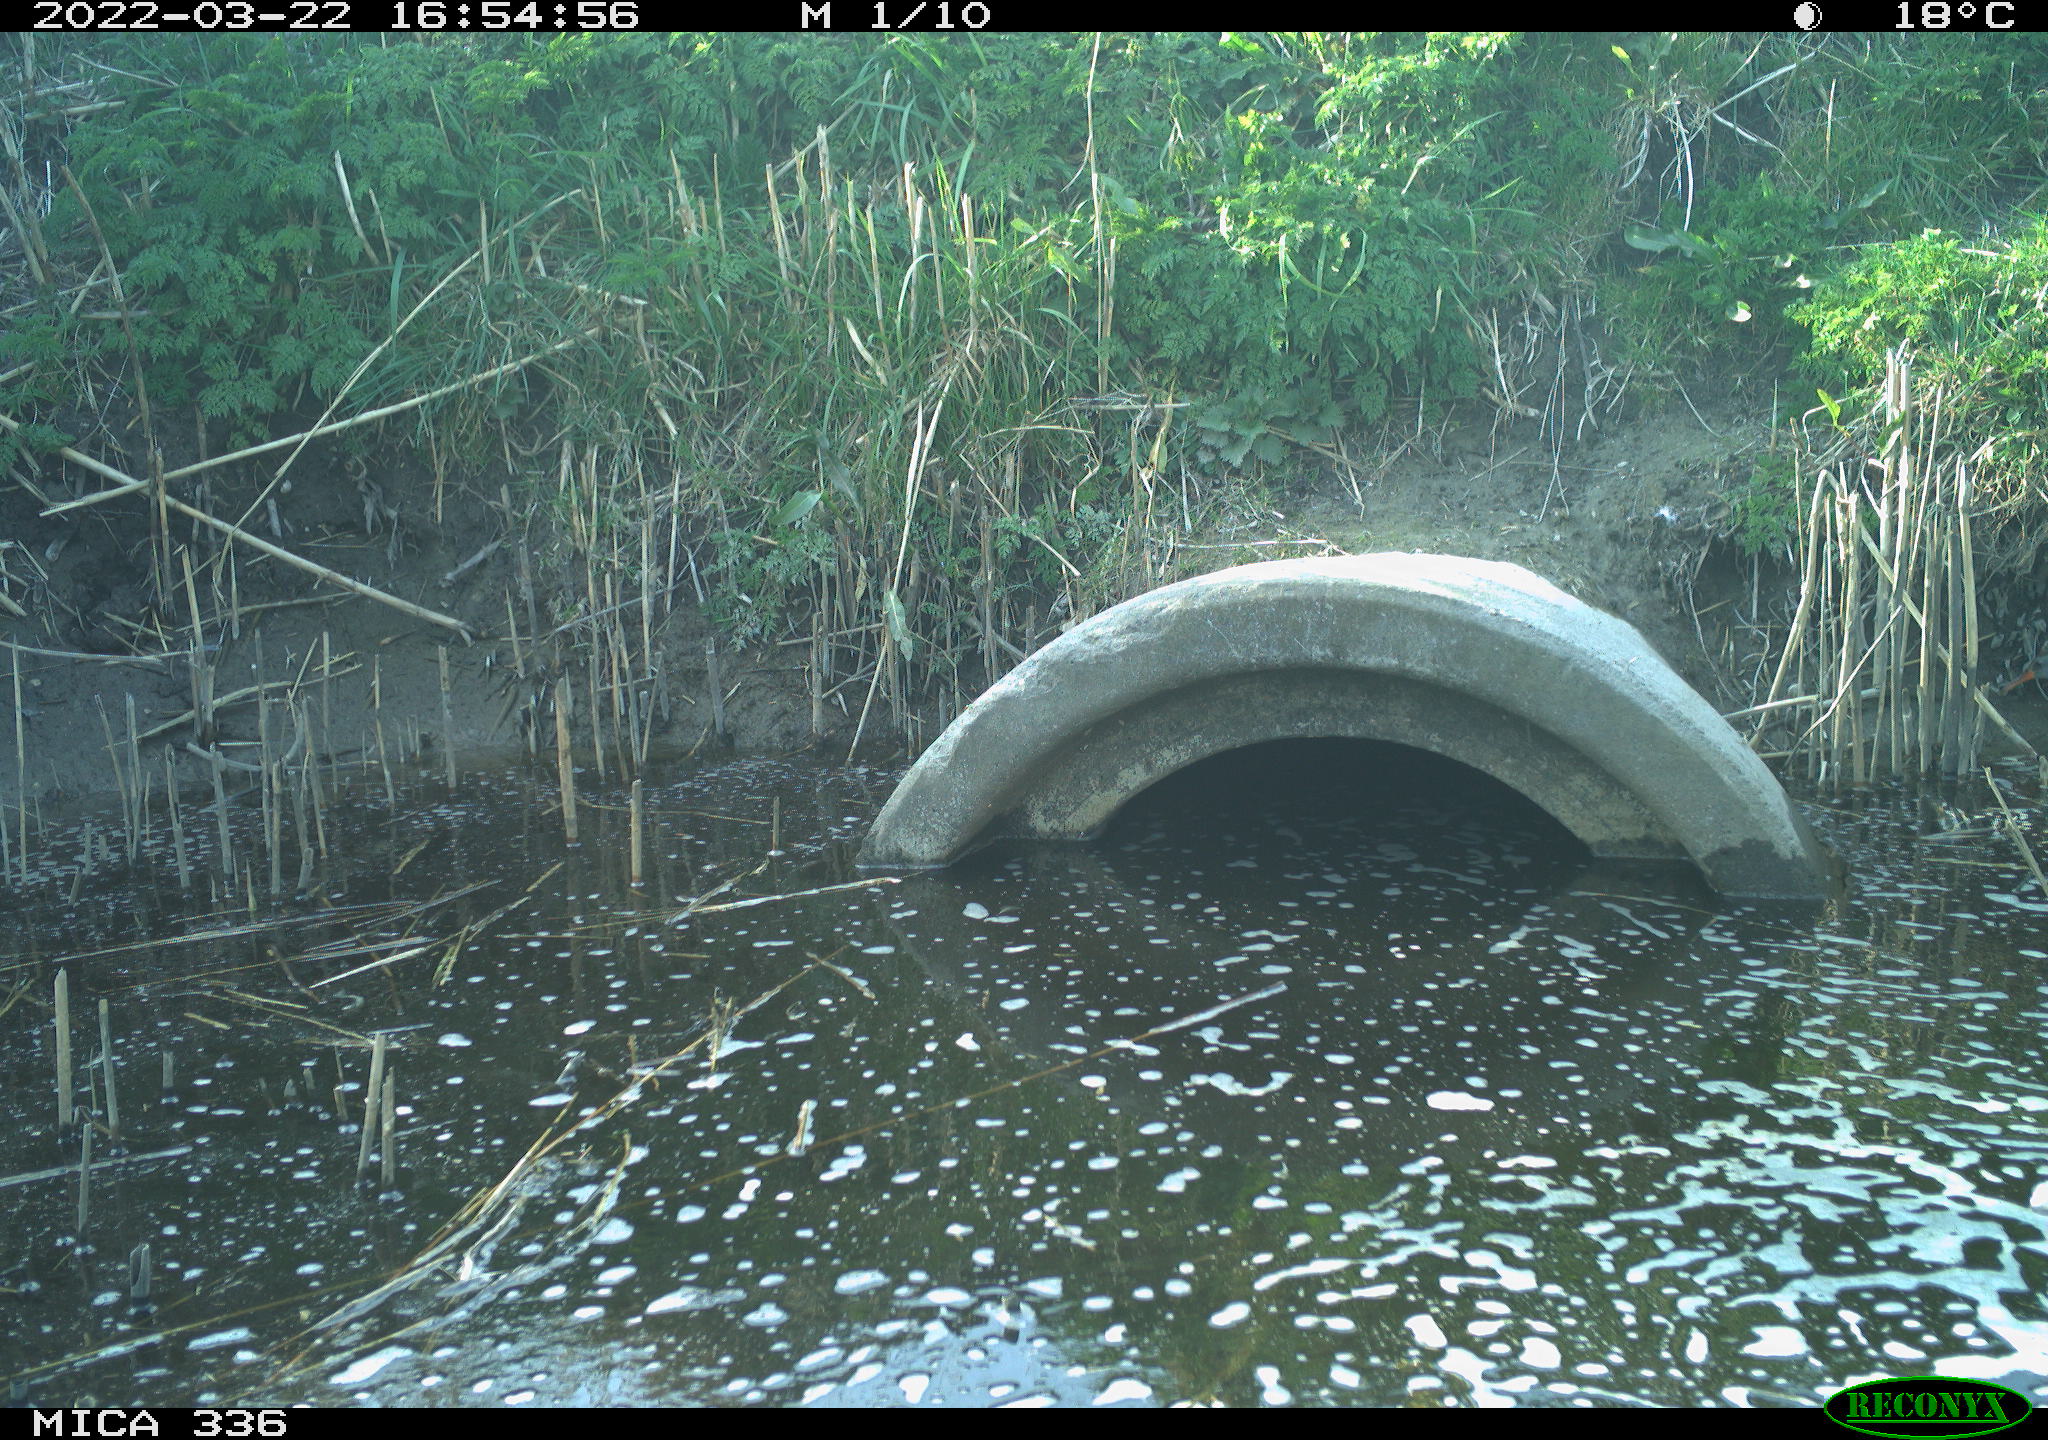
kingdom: Animalia
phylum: Chordata
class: Aves
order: Gruiformes
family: Rallidae
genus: Rallus
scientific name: Rallus aquaticus
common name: Water rail
